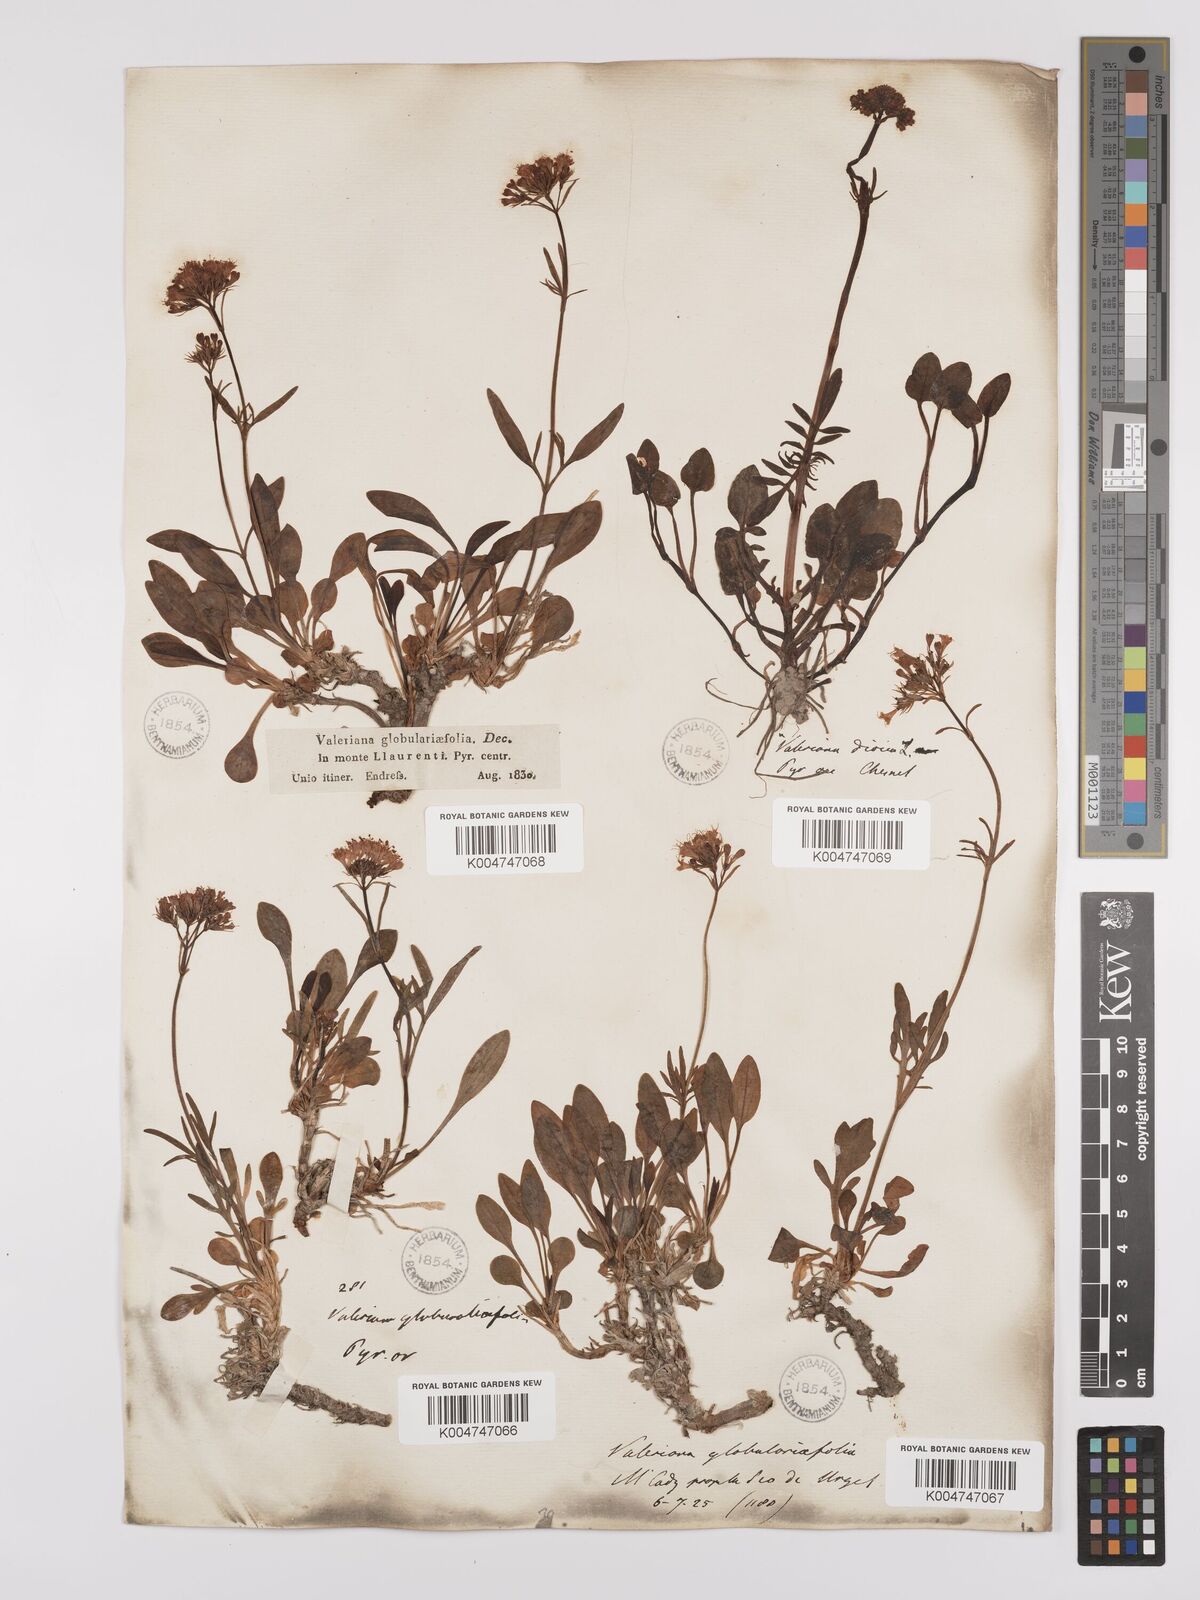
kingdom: Plantae
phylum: Tracheophyta
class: Magnoliopsida
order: Dipsacales
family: Caprifoliaceae
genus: Valeriana
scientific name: Valeriana apula
